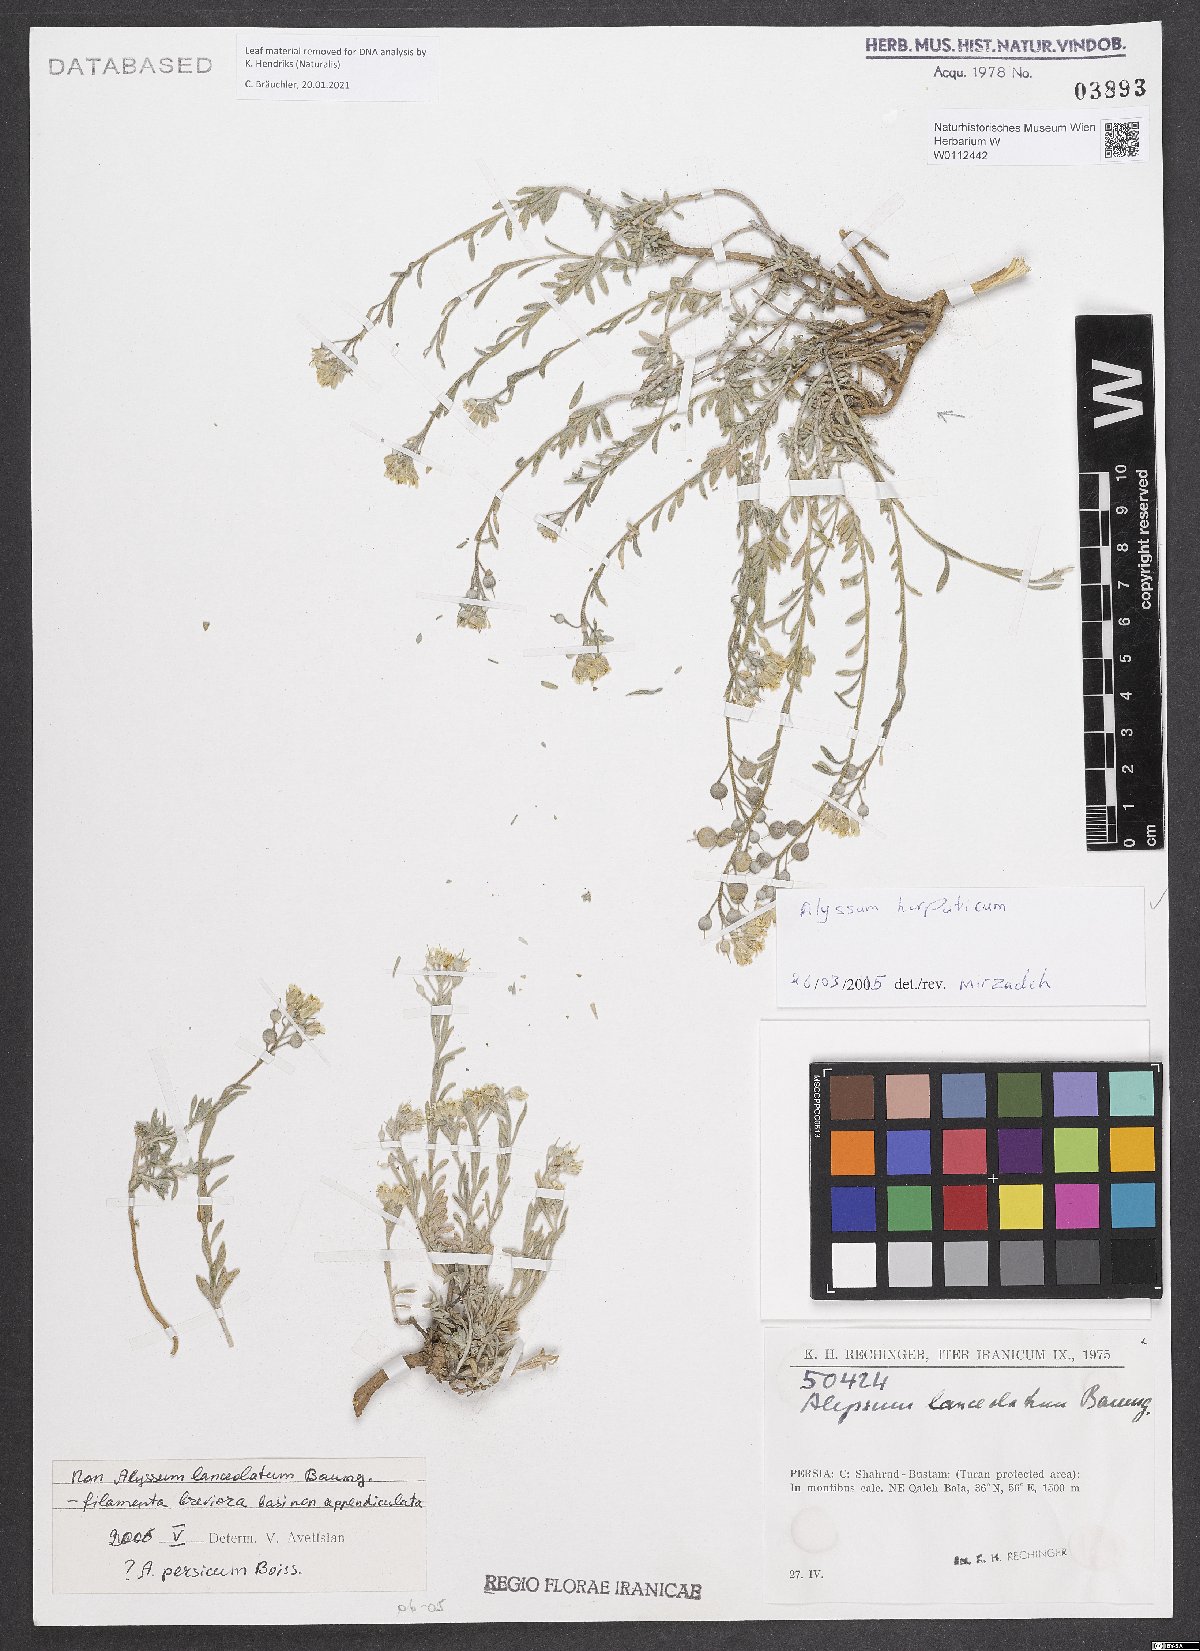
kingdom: Plantae
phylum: Tracheophyta
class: Magnoliopsida
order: Brassicales
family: Brassicaceae
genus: Alyssum
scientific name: Alyssum harputicum
